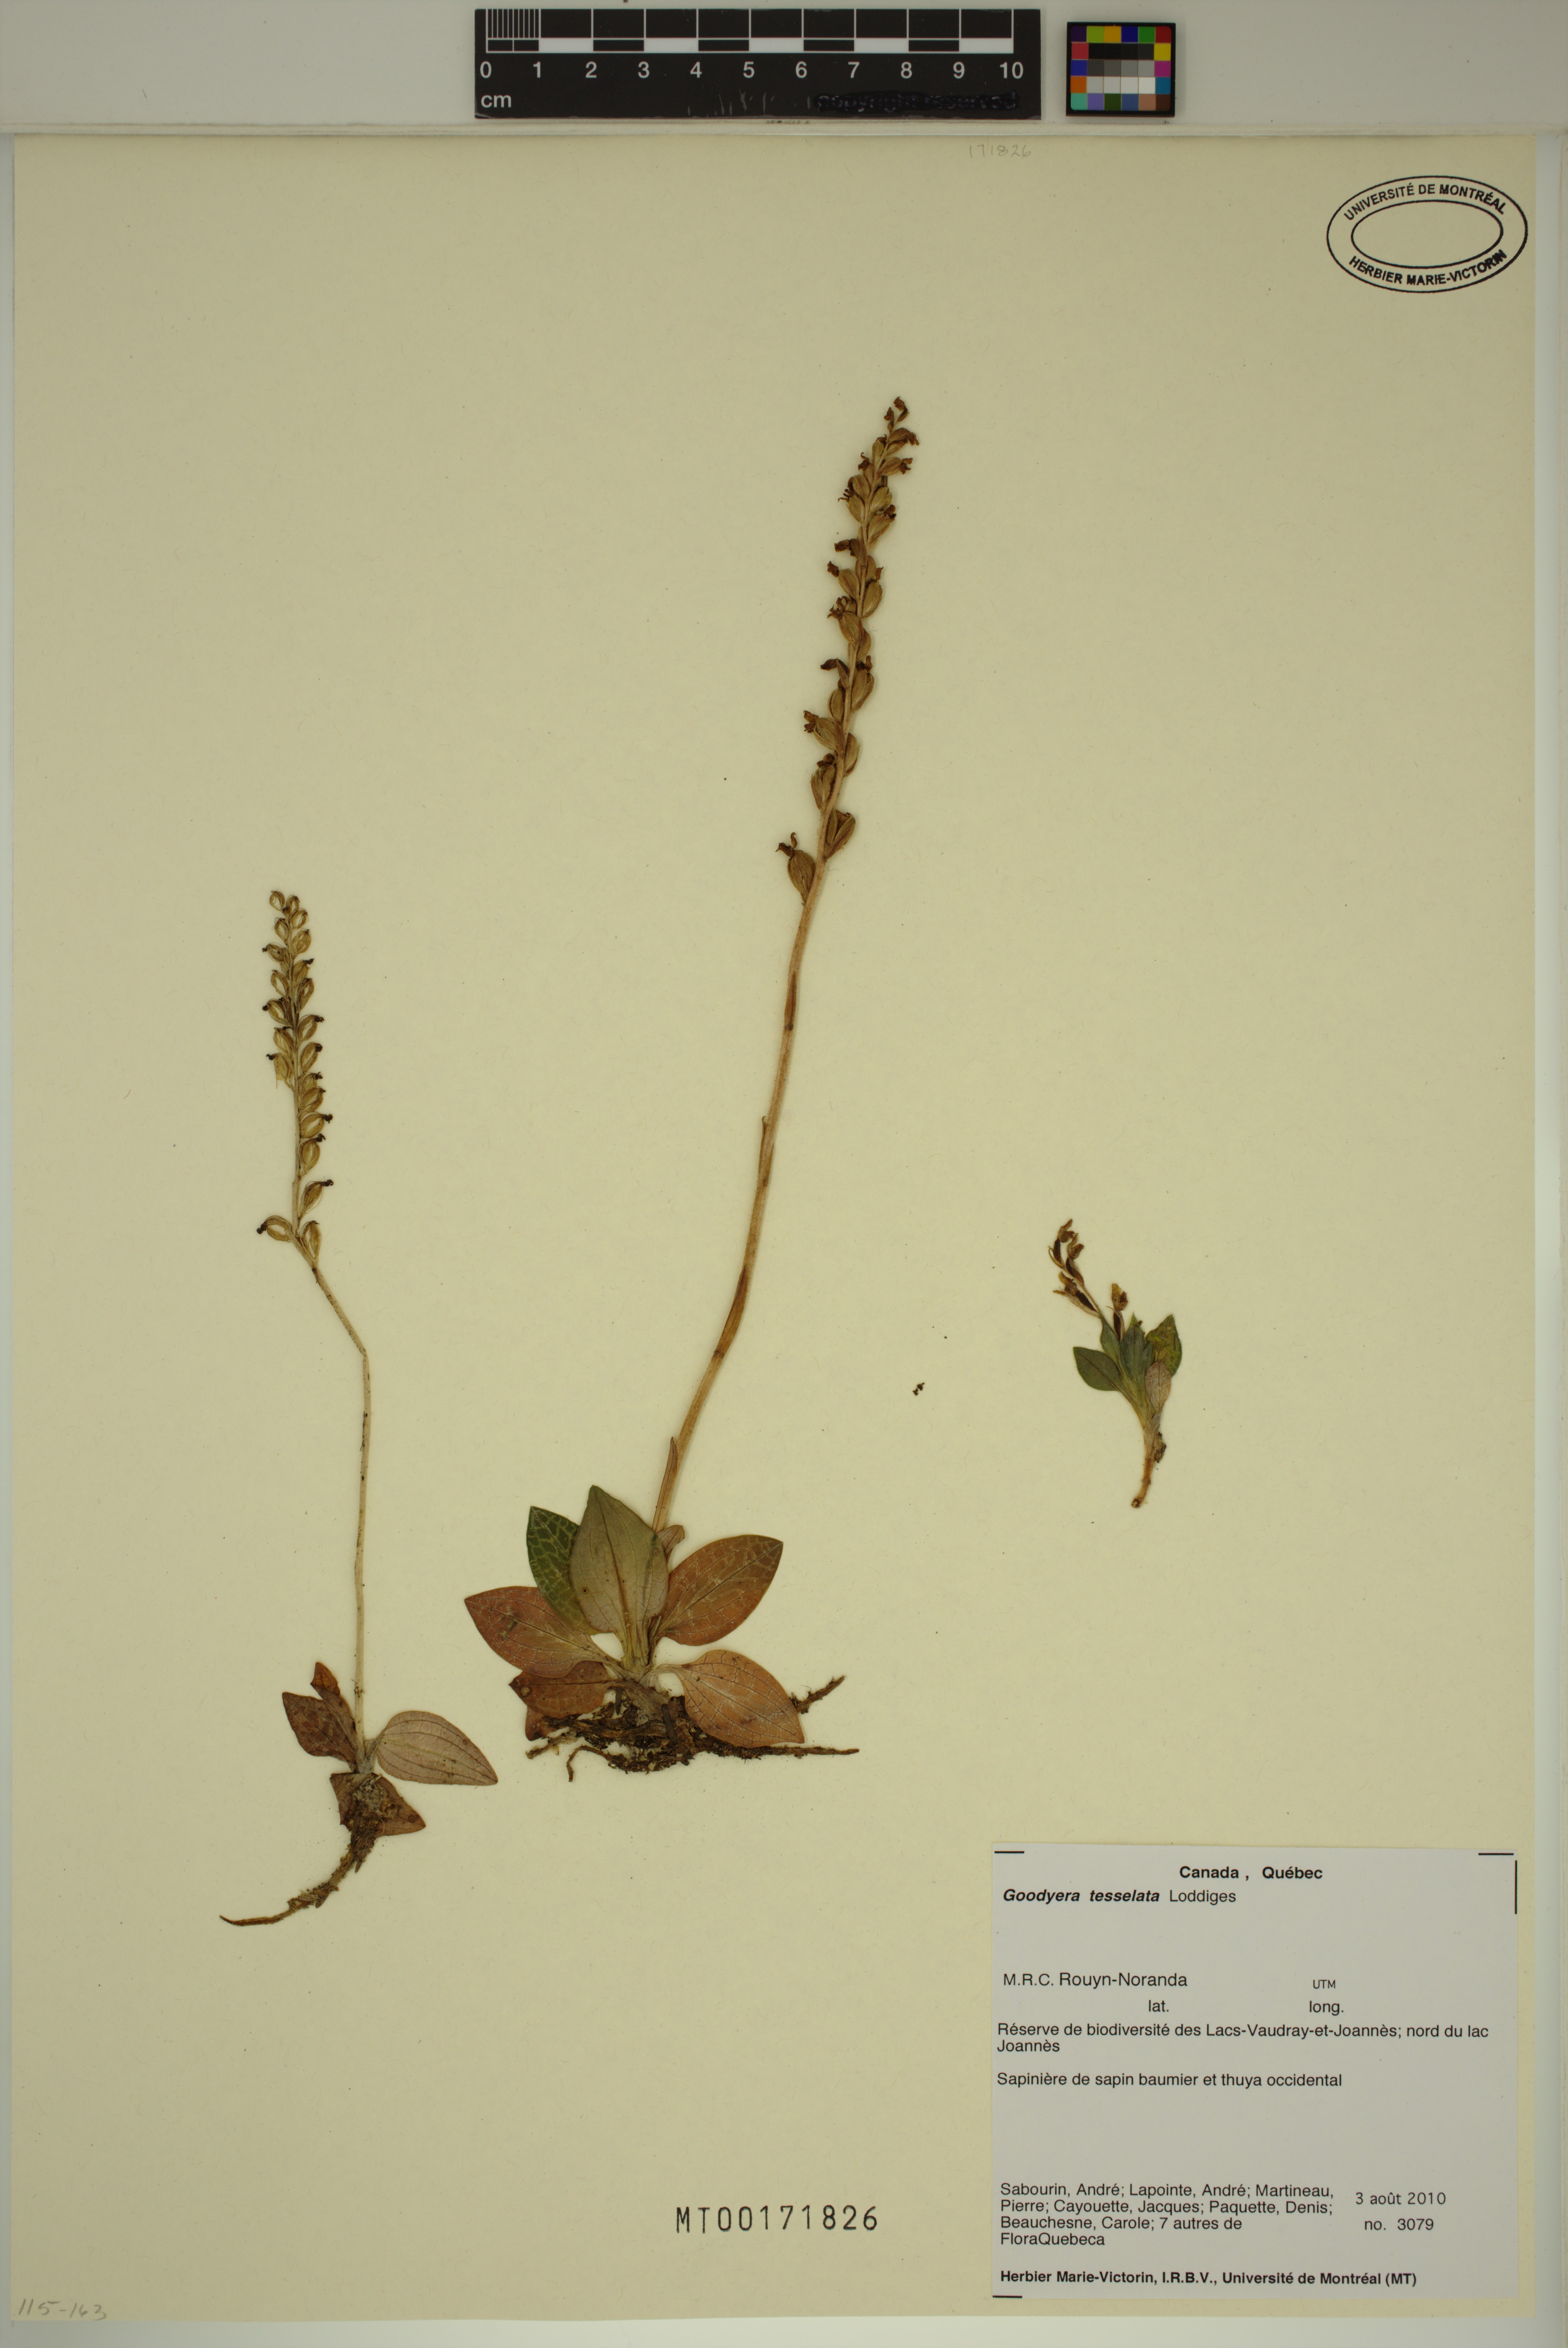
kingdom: Plantae
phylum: Tracheophyta
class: Liliopsida
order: Asparagales
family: Orchidaceae
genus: Goodyera
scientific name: Goodyera tesselata
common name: Checkered rattlesnake-plantain
